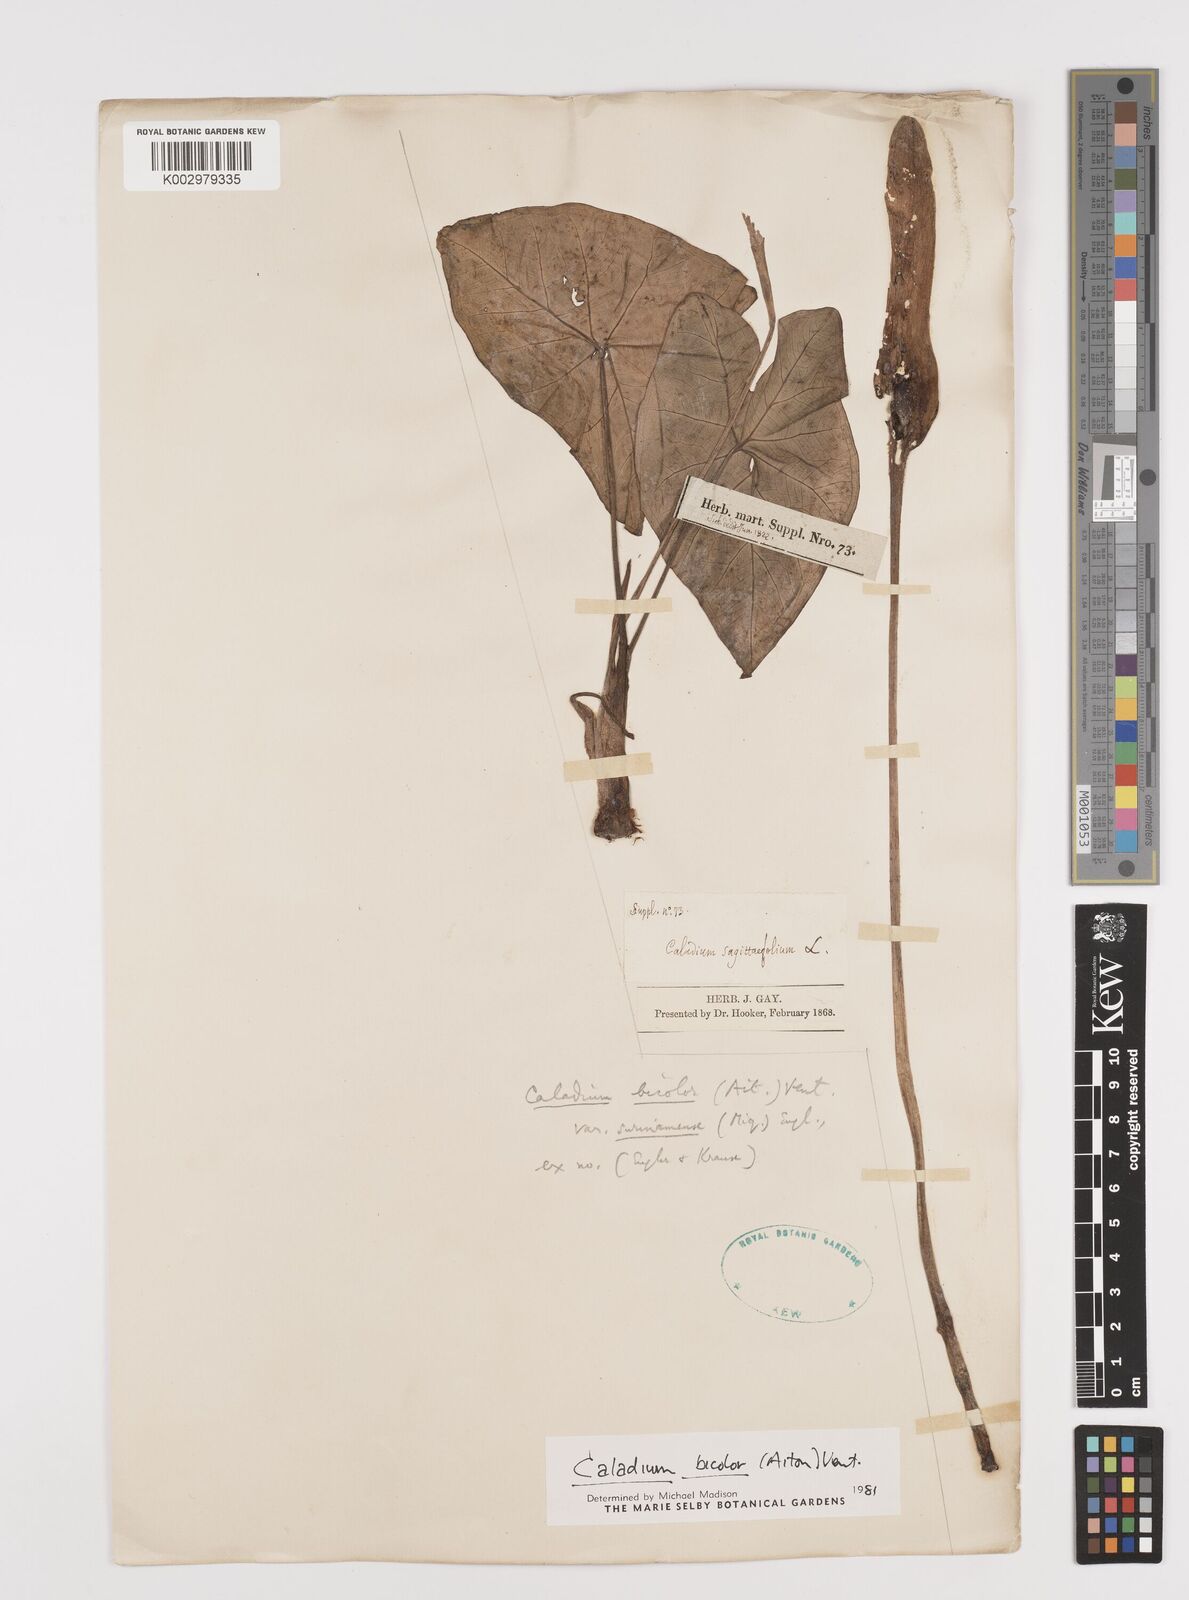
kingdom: Plantae
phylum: Tracheophyta
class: Liliopsida
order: Alismatales
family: Araceae
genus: Xanthosoma
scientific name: Xanthosoma poecile
